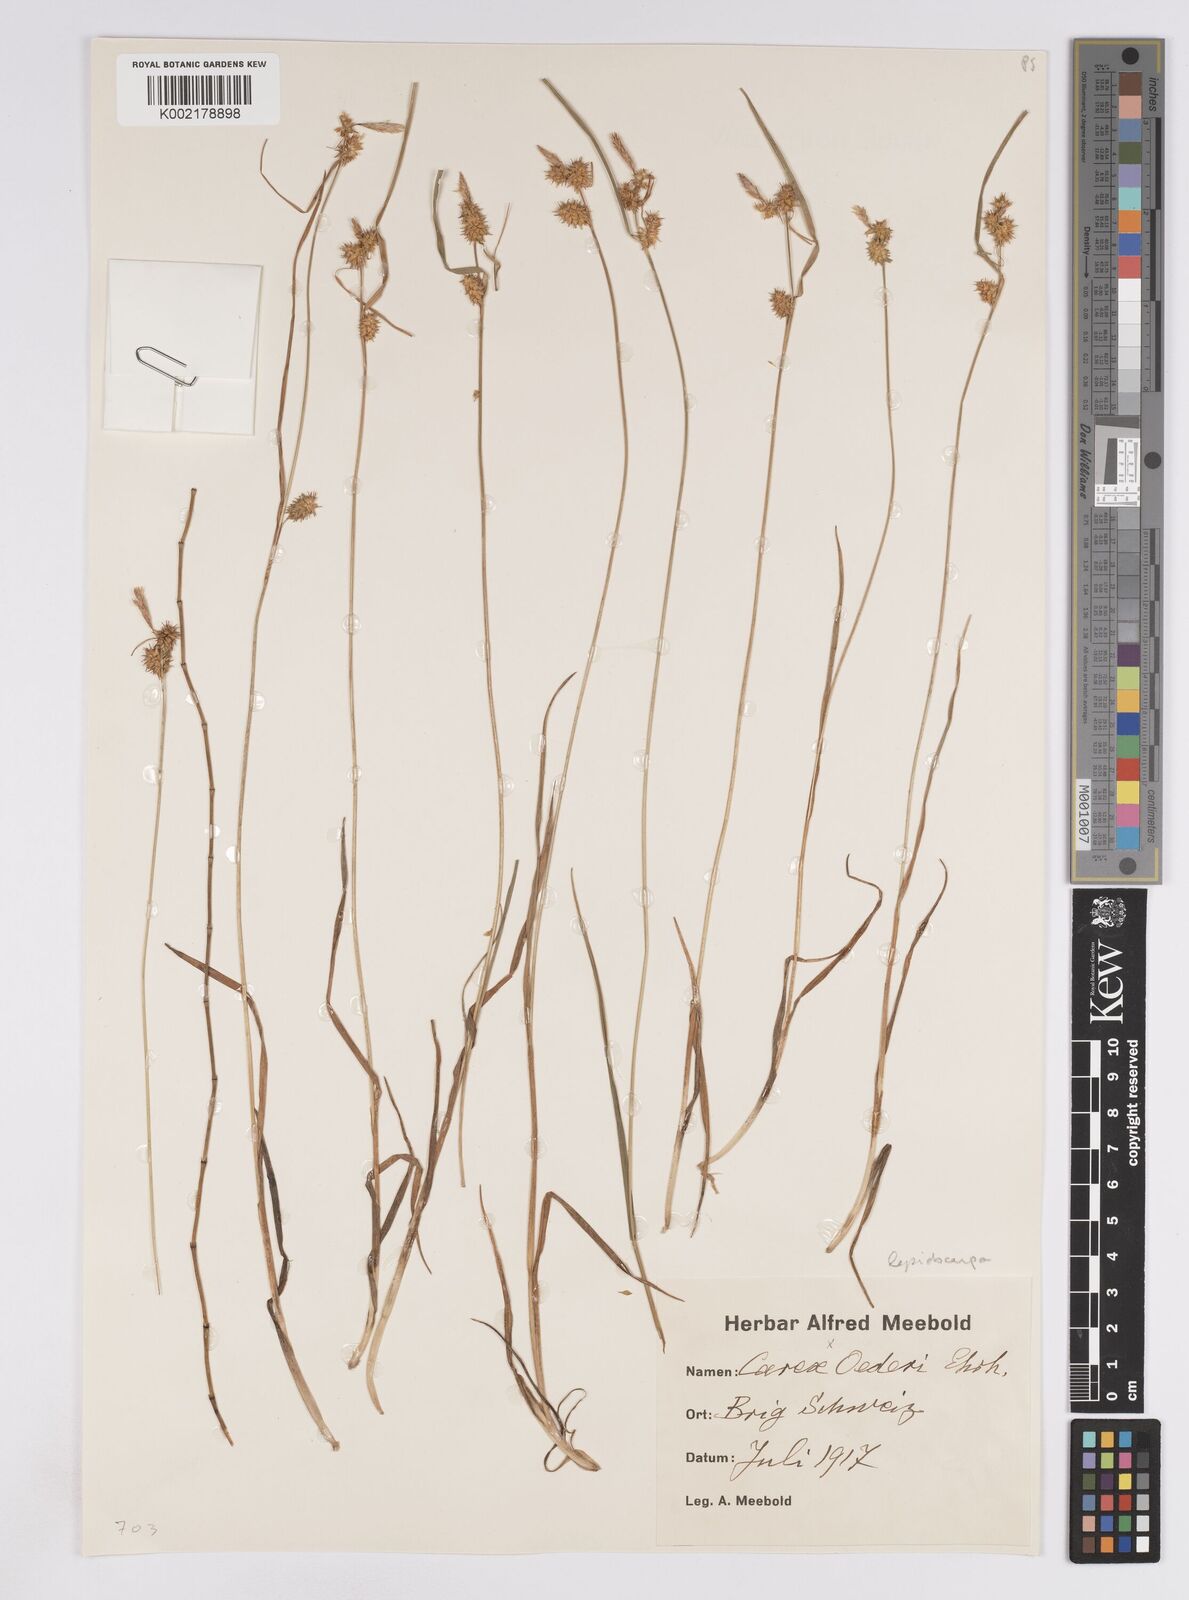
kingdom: Plantae
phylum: Tracheophyta
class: Liliopsida
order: Poales
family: Cyperaceae
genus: Carex
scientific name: Carex lepidocarpa
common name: Long-stalked yellow-sedge
